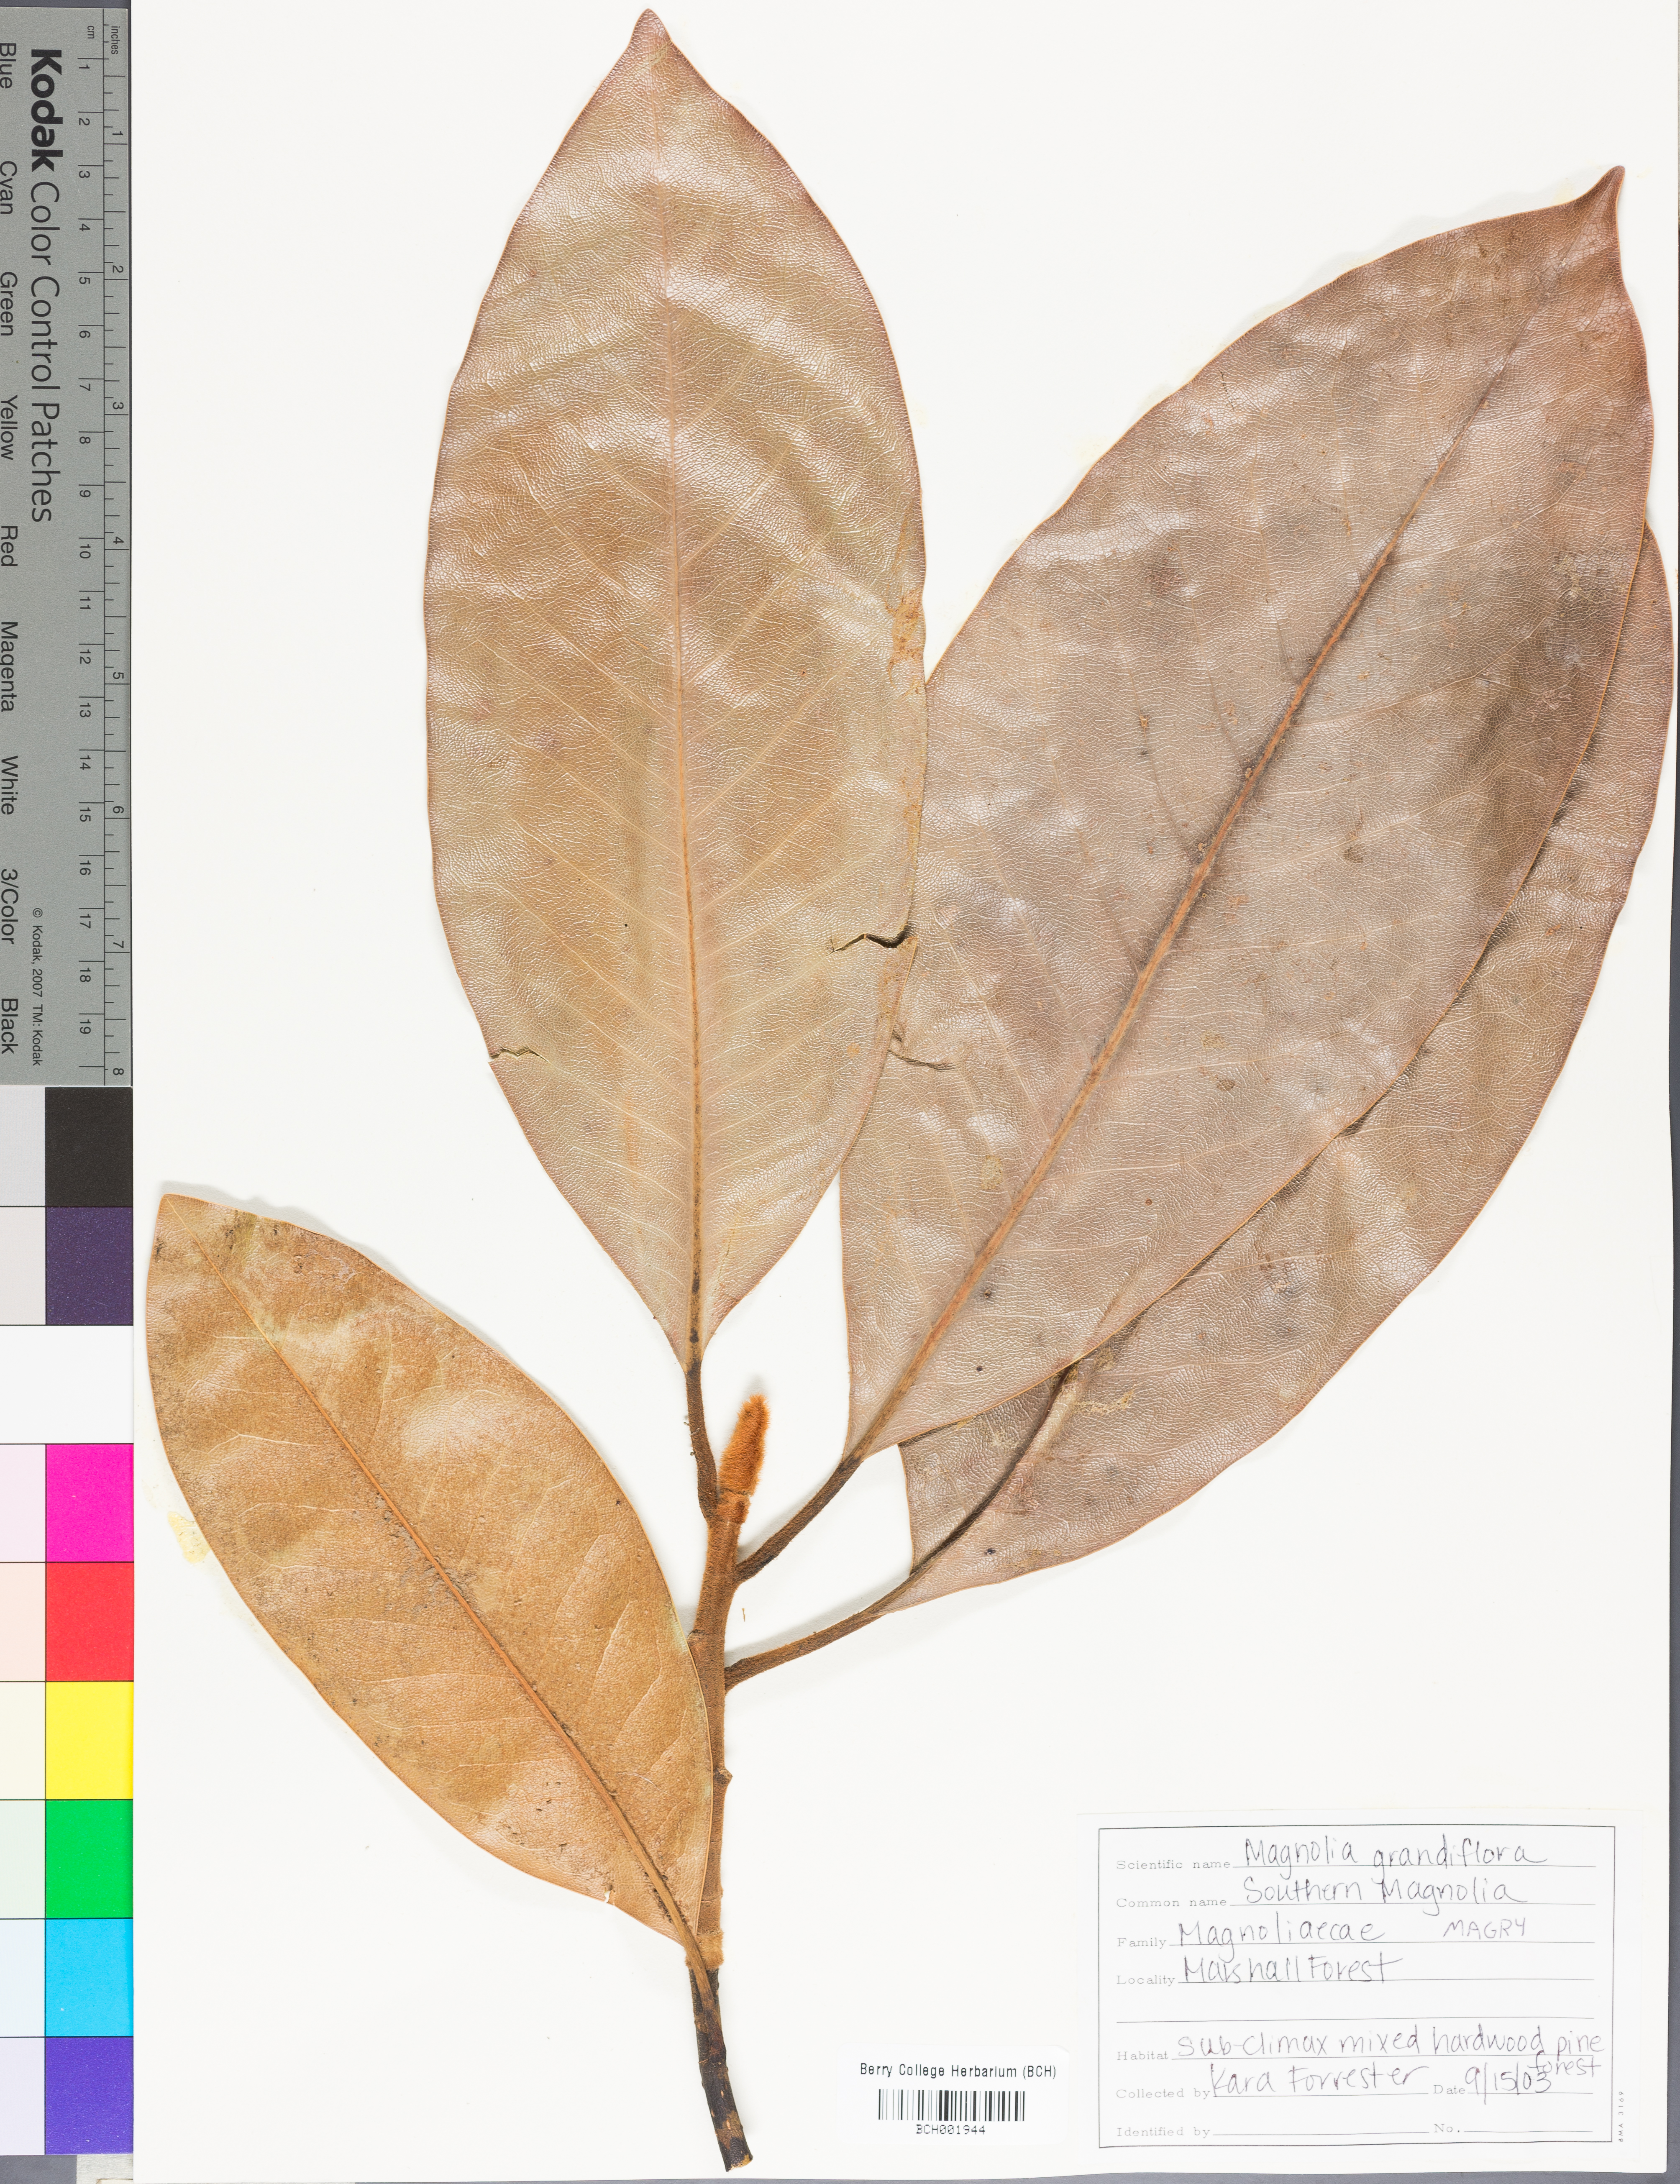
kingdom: Plantae
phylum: Tracheophyta
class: Magnoliopsida
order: Magnoliales
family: Magnoliaceae
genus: Magnolia
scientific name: Magnolia grandiflora
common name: Southern magnolia
